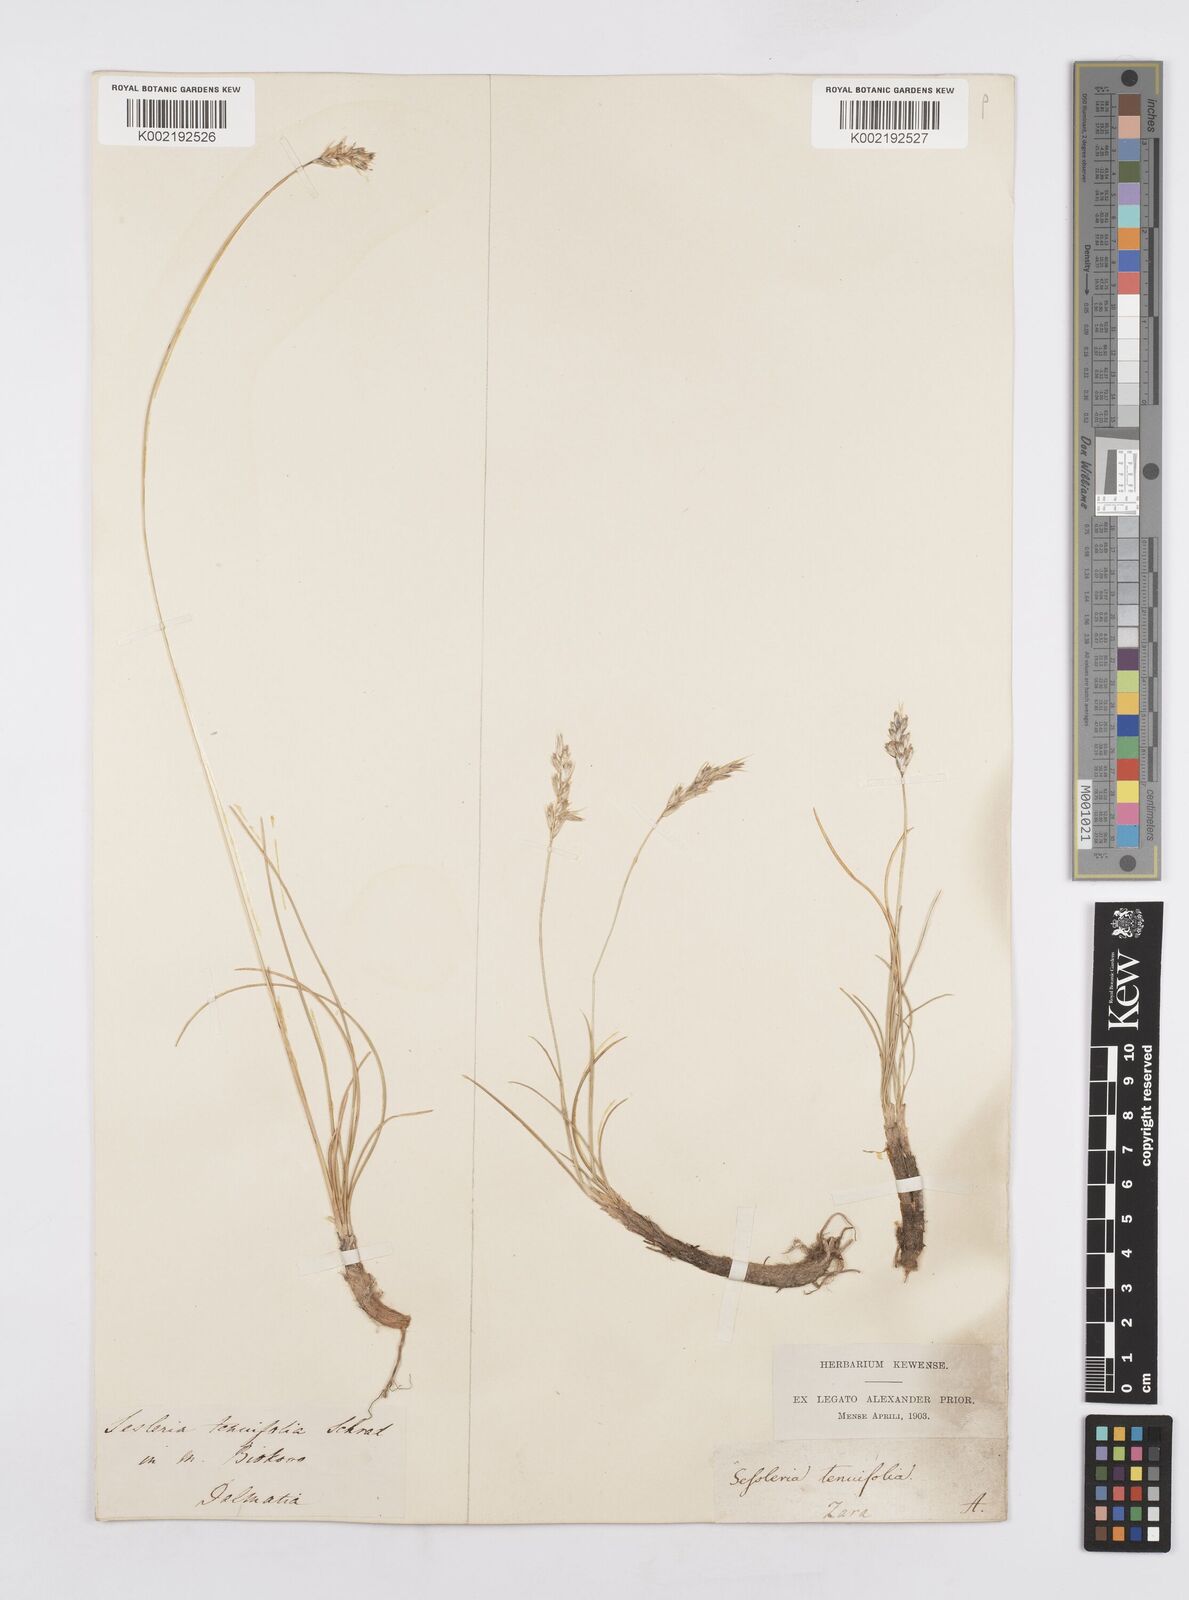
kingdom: Plantae
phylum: Tracheophyta
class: Liliopsida
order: Poales
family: Poaceae
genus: Sesleria
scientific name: Sesleria juncifolia
